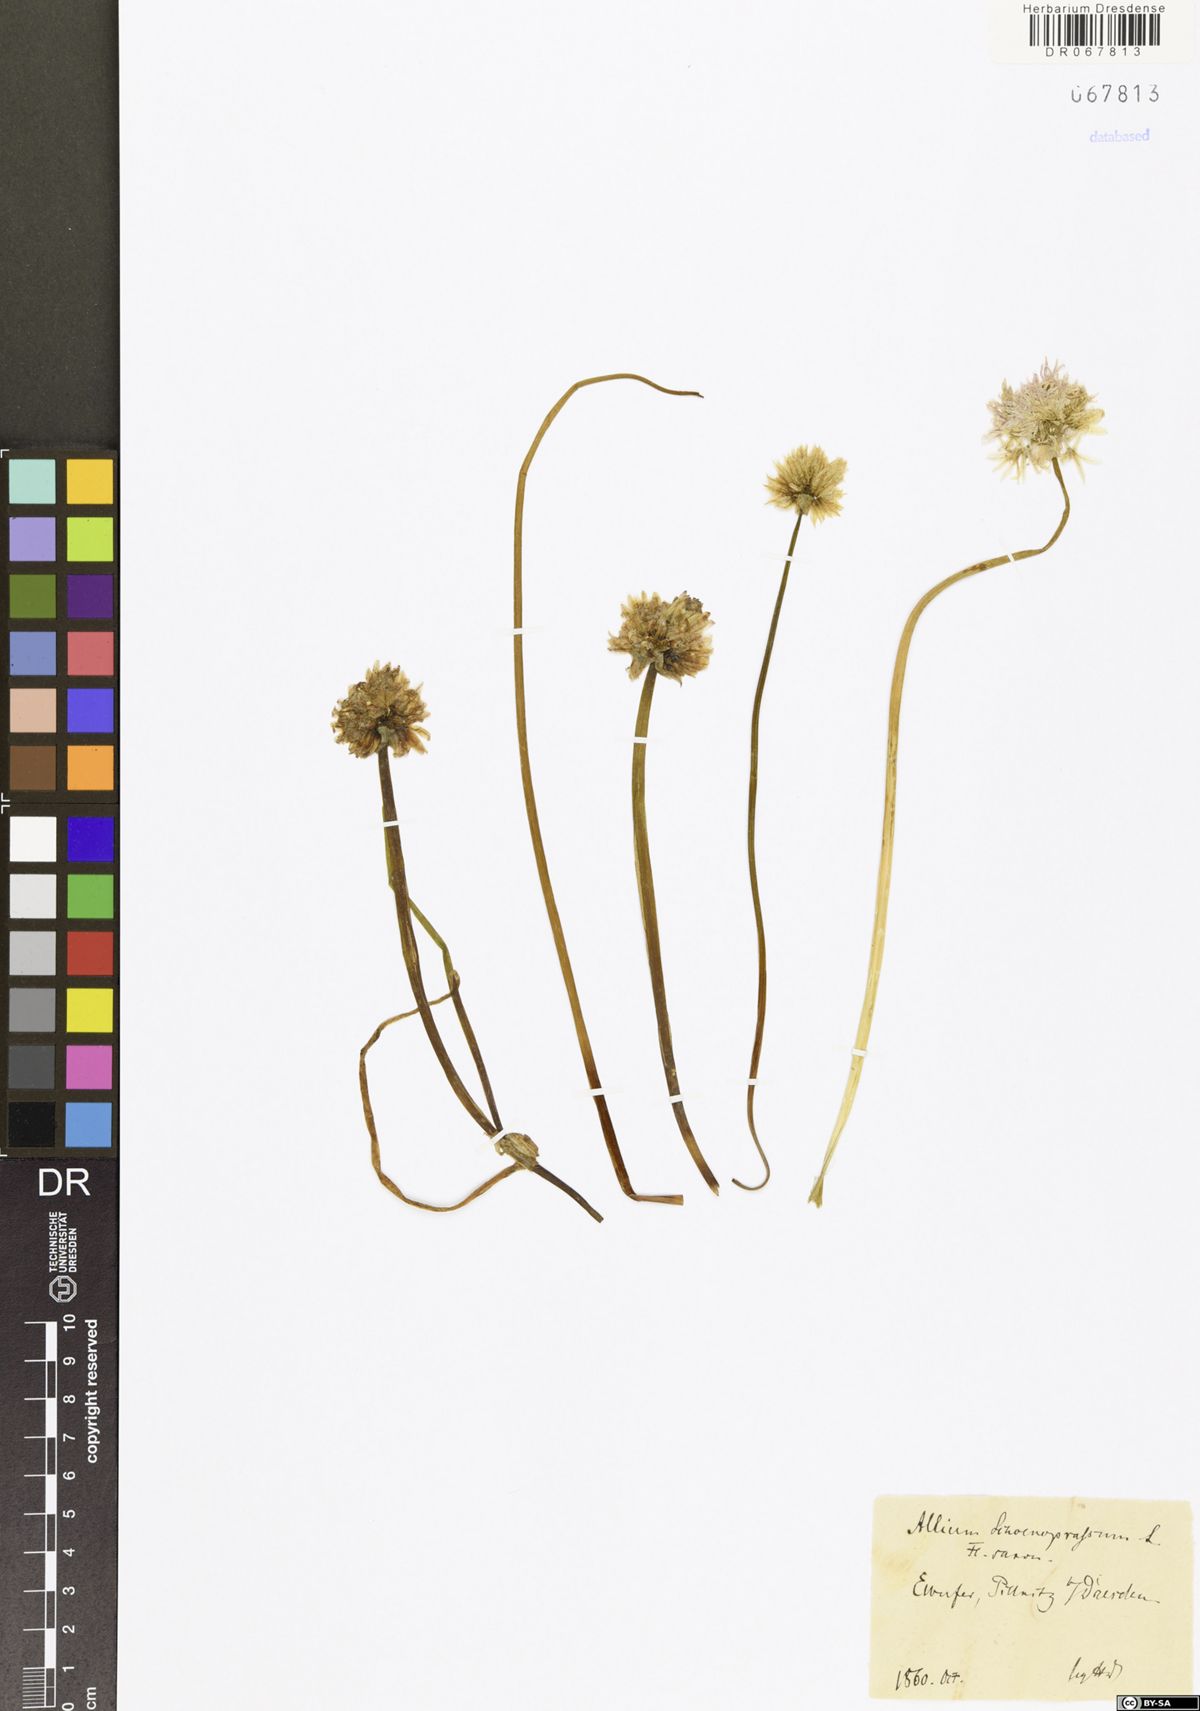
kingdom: Plantae
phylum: Tracheophyta
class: Liliopsida
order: Asparagales
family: Amaryllidaceae
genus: Allium
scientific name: Allium schoenoprasum
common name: Chives
